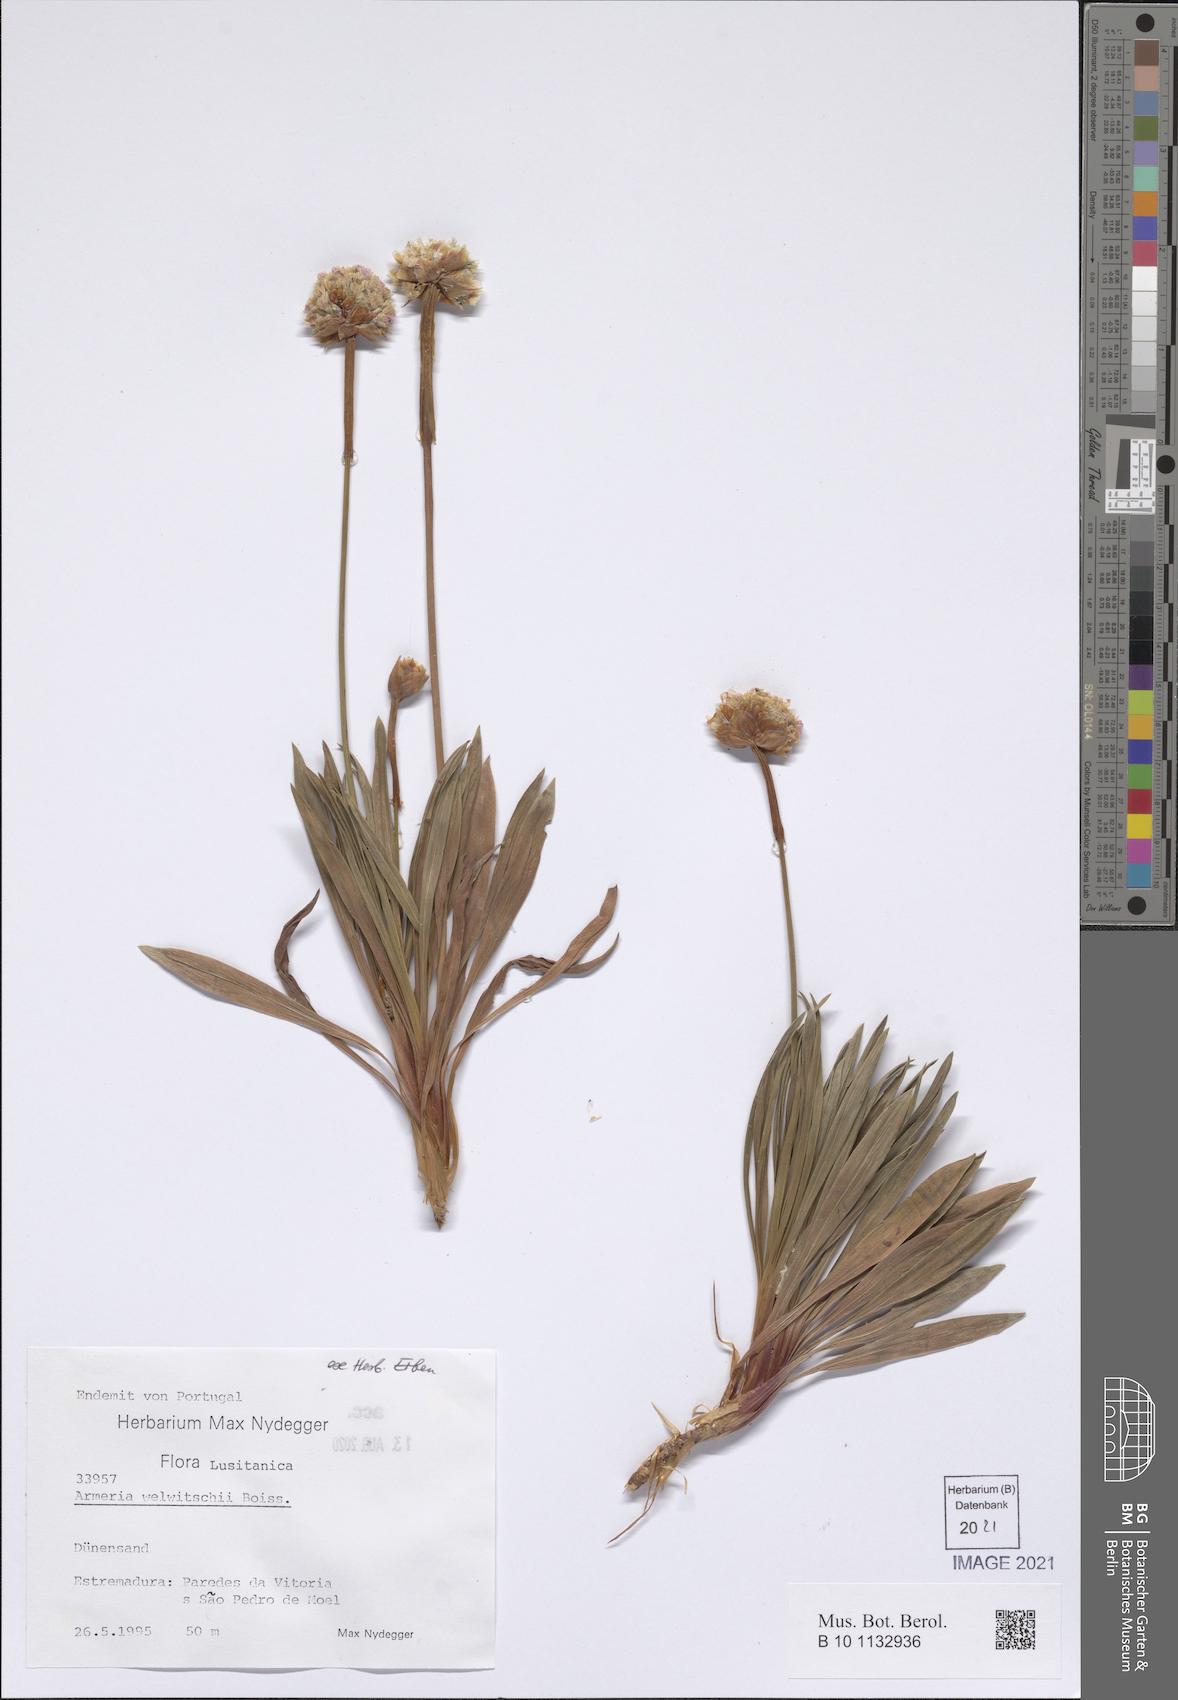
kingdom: Plantae
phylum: Tracheophyta
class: Magnoliopsida
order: Caryophyllales
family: Plumbaginaceae
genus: Armeria
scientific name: Armeria welwitschii
